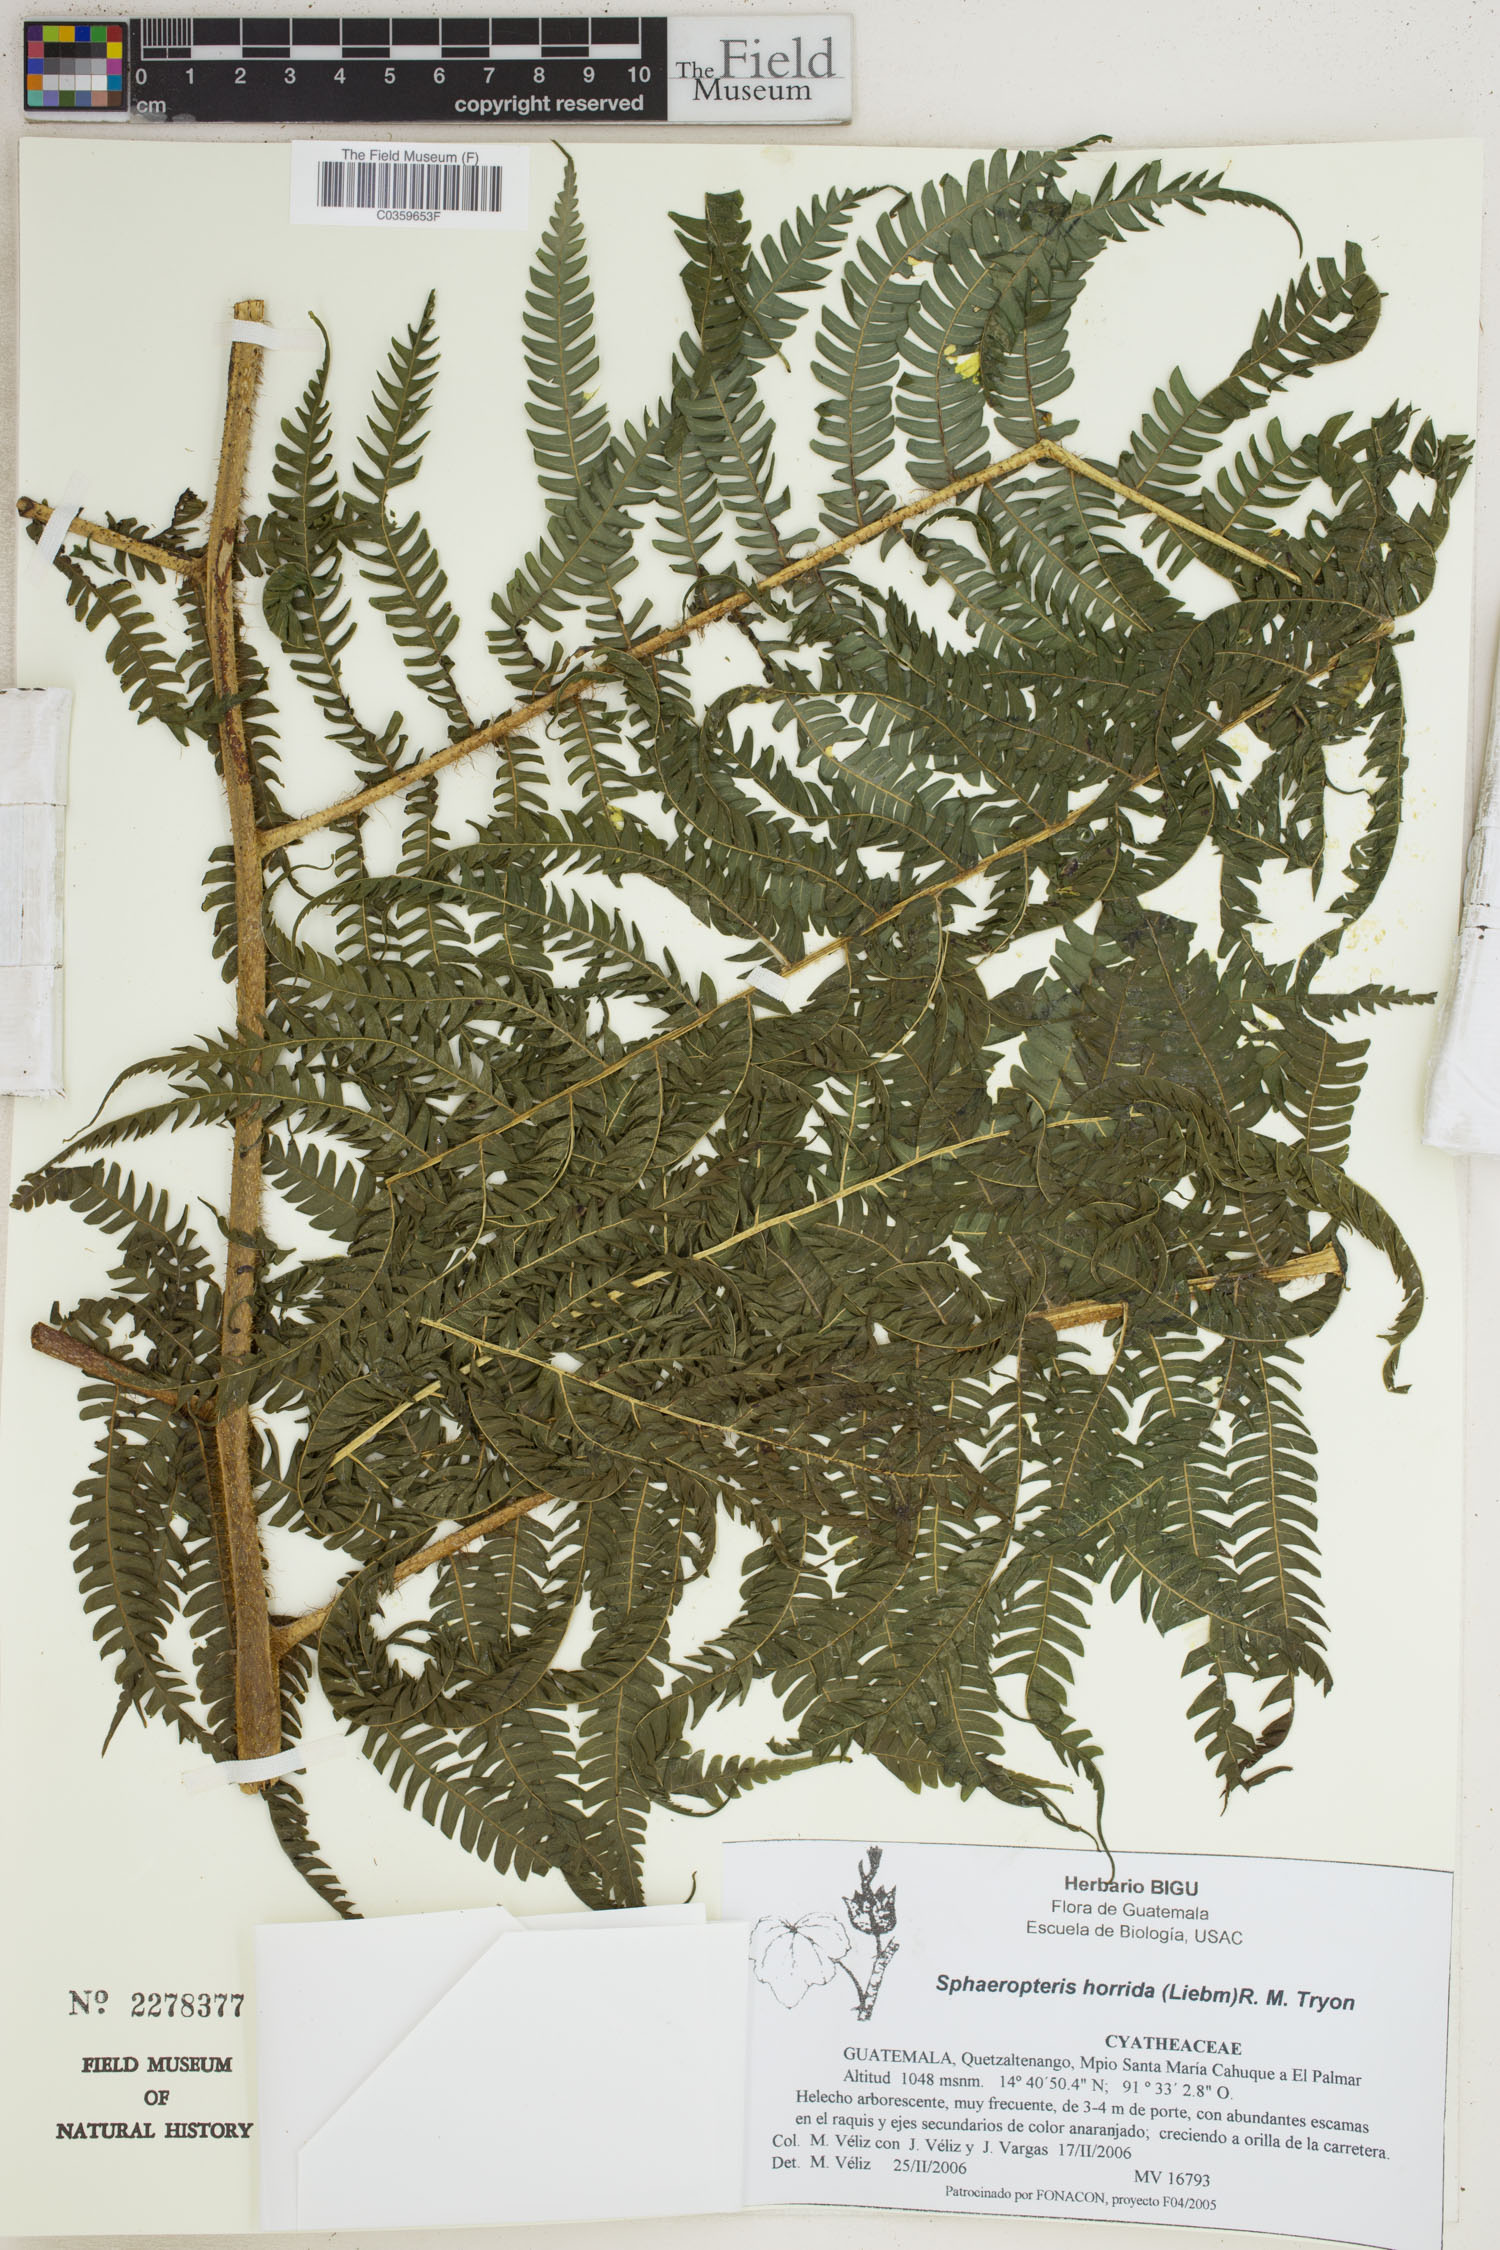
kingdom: Plantae
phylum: Tracheophyta
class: Polypodiopsida
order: Cyatheales
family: Cyatheaceae
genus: Sphaeropteris
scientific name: Sphaeropteris horrida
